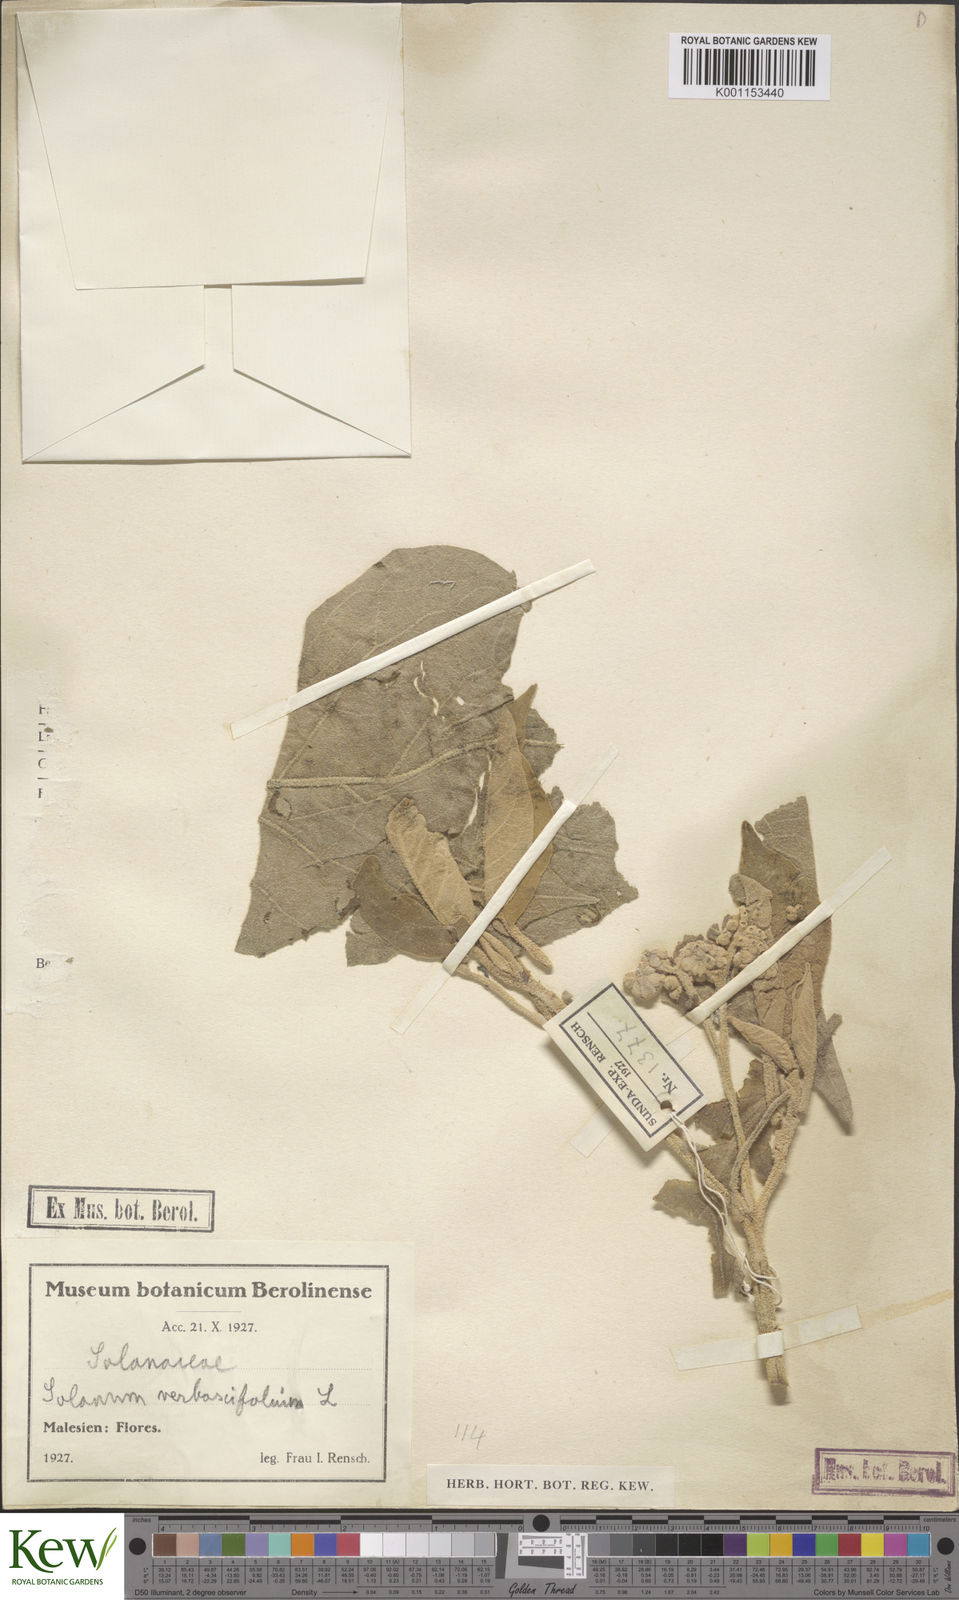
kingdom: Plantae
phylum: Tracheophyta
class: Magnoliopsida
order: Solanales
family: Solanaceae
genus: Solanum
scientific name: Solanum erianthum
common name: Tobacco-tree
